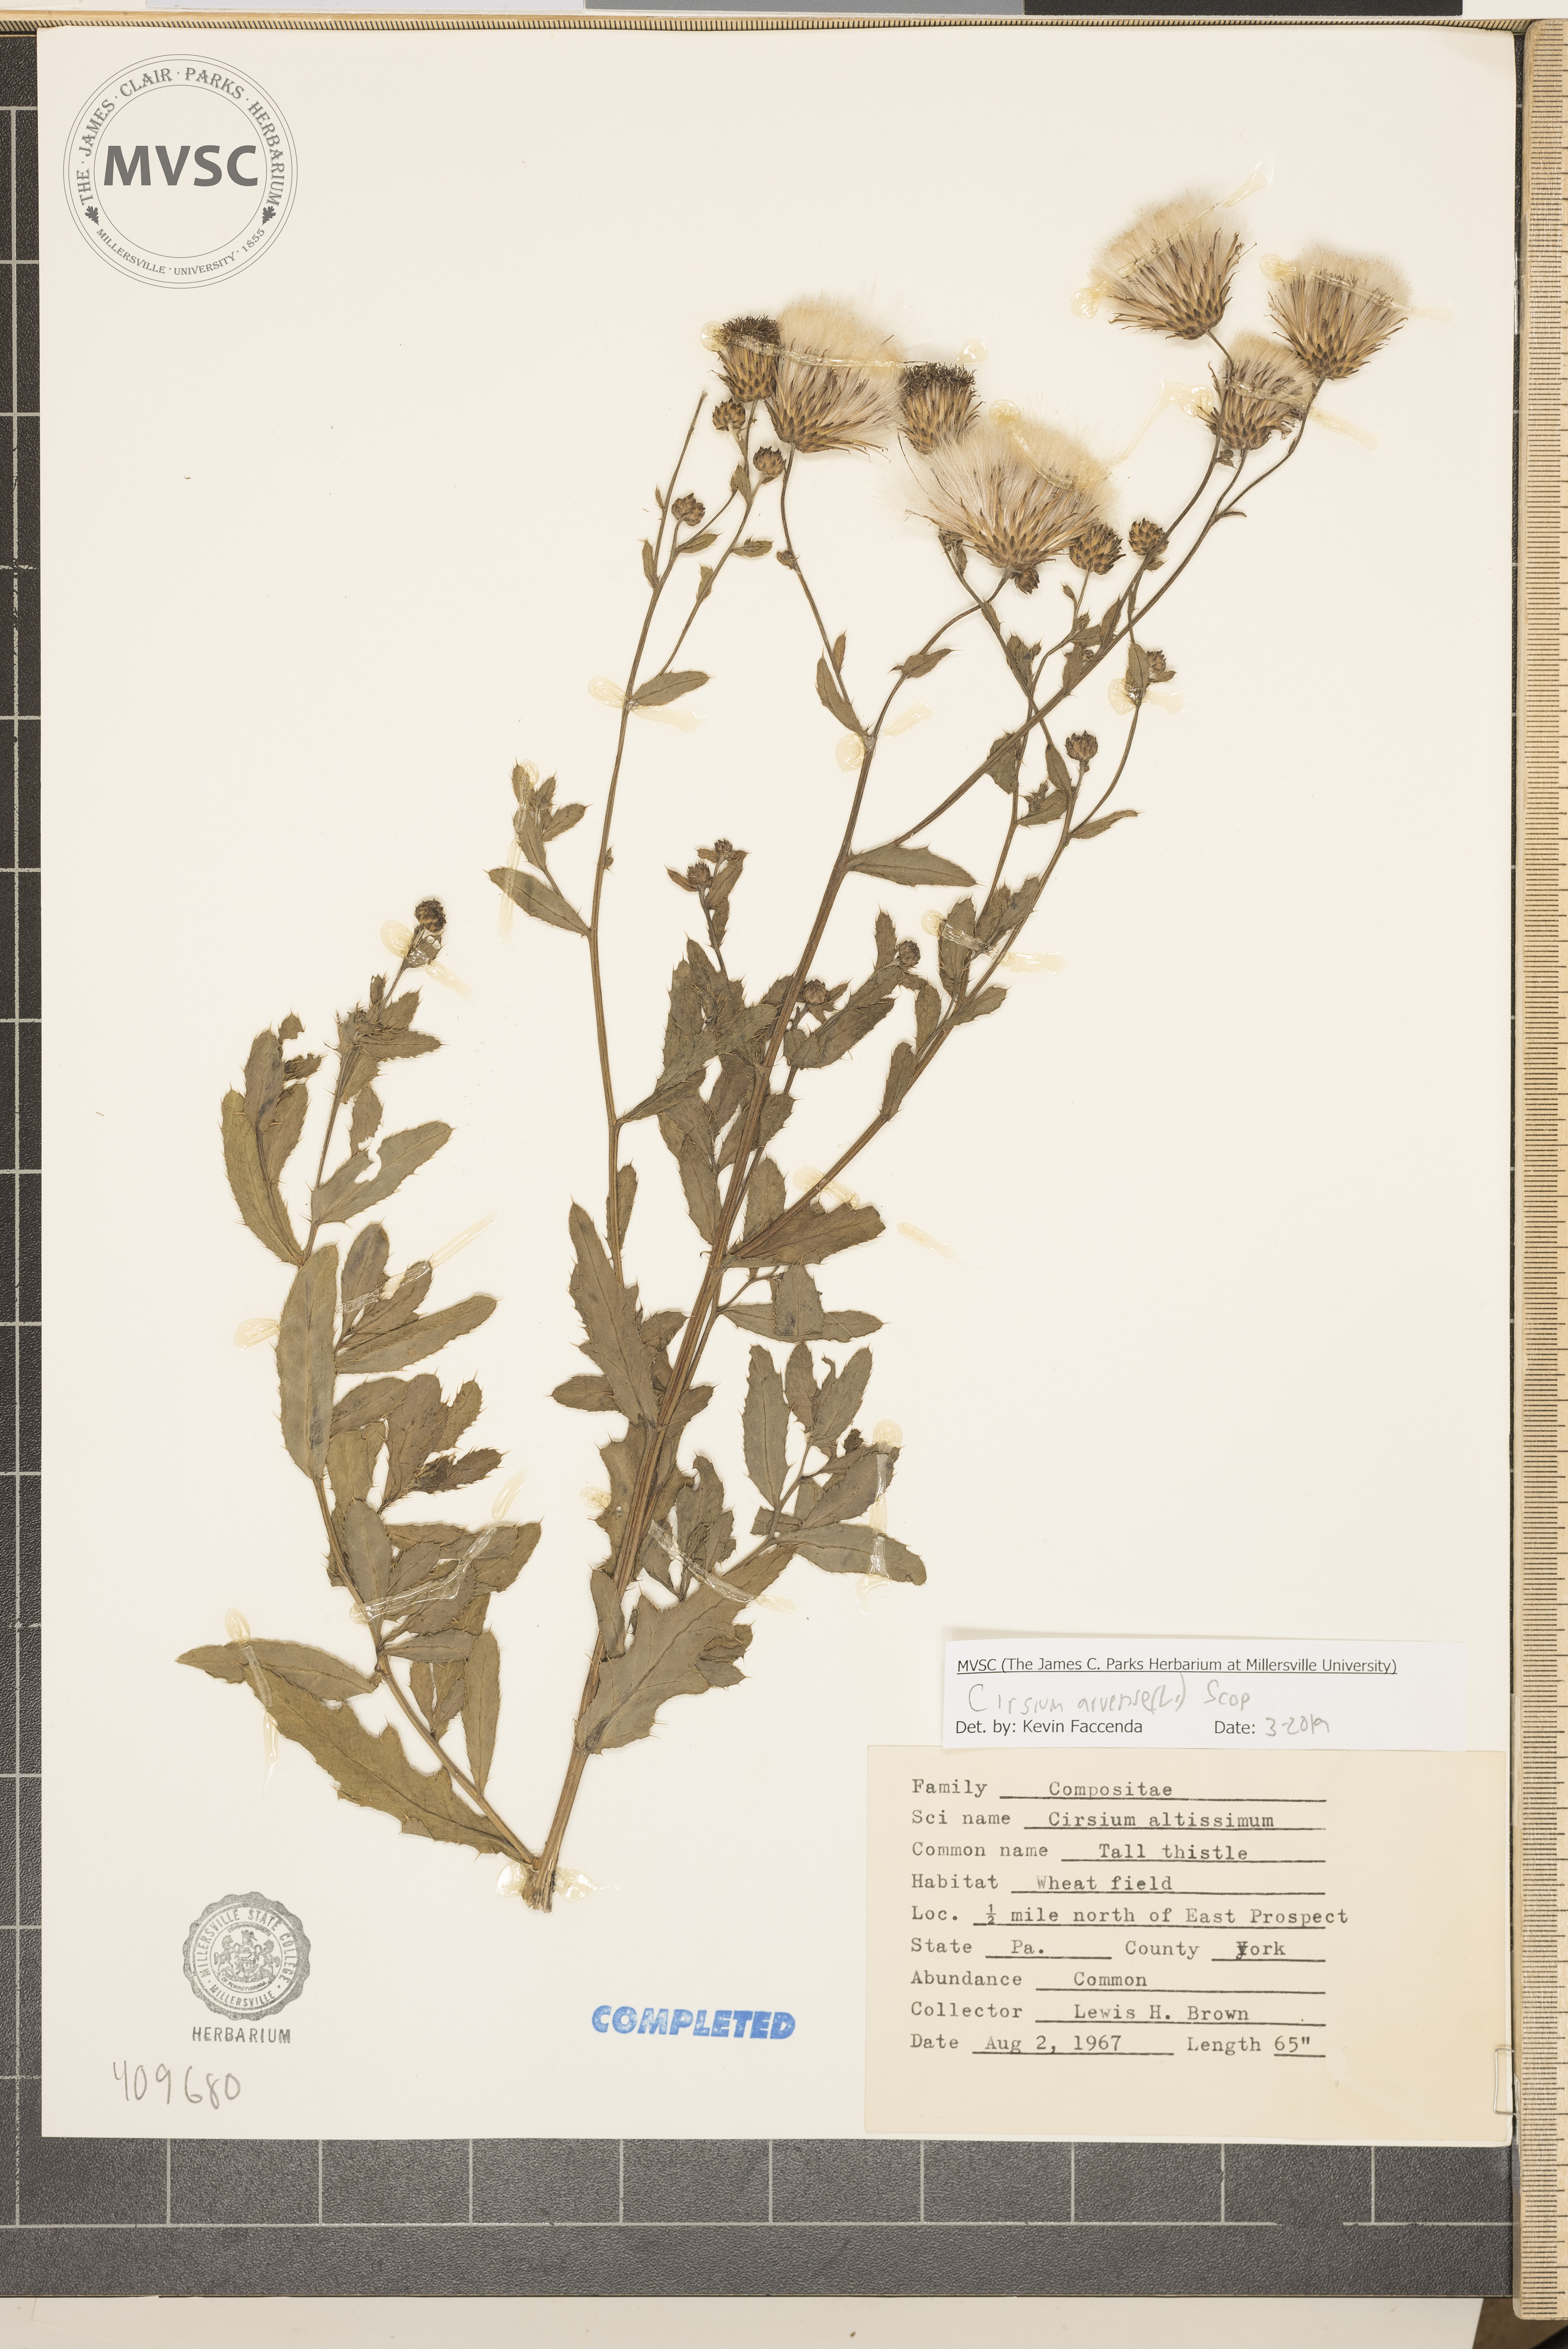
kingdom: Plantae
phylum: Tracheophyta
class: Magnoliopsida
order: Asterales
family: Asteraceae
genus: Cirsium
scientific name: Cirsium arvense
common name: Creeping thistle
